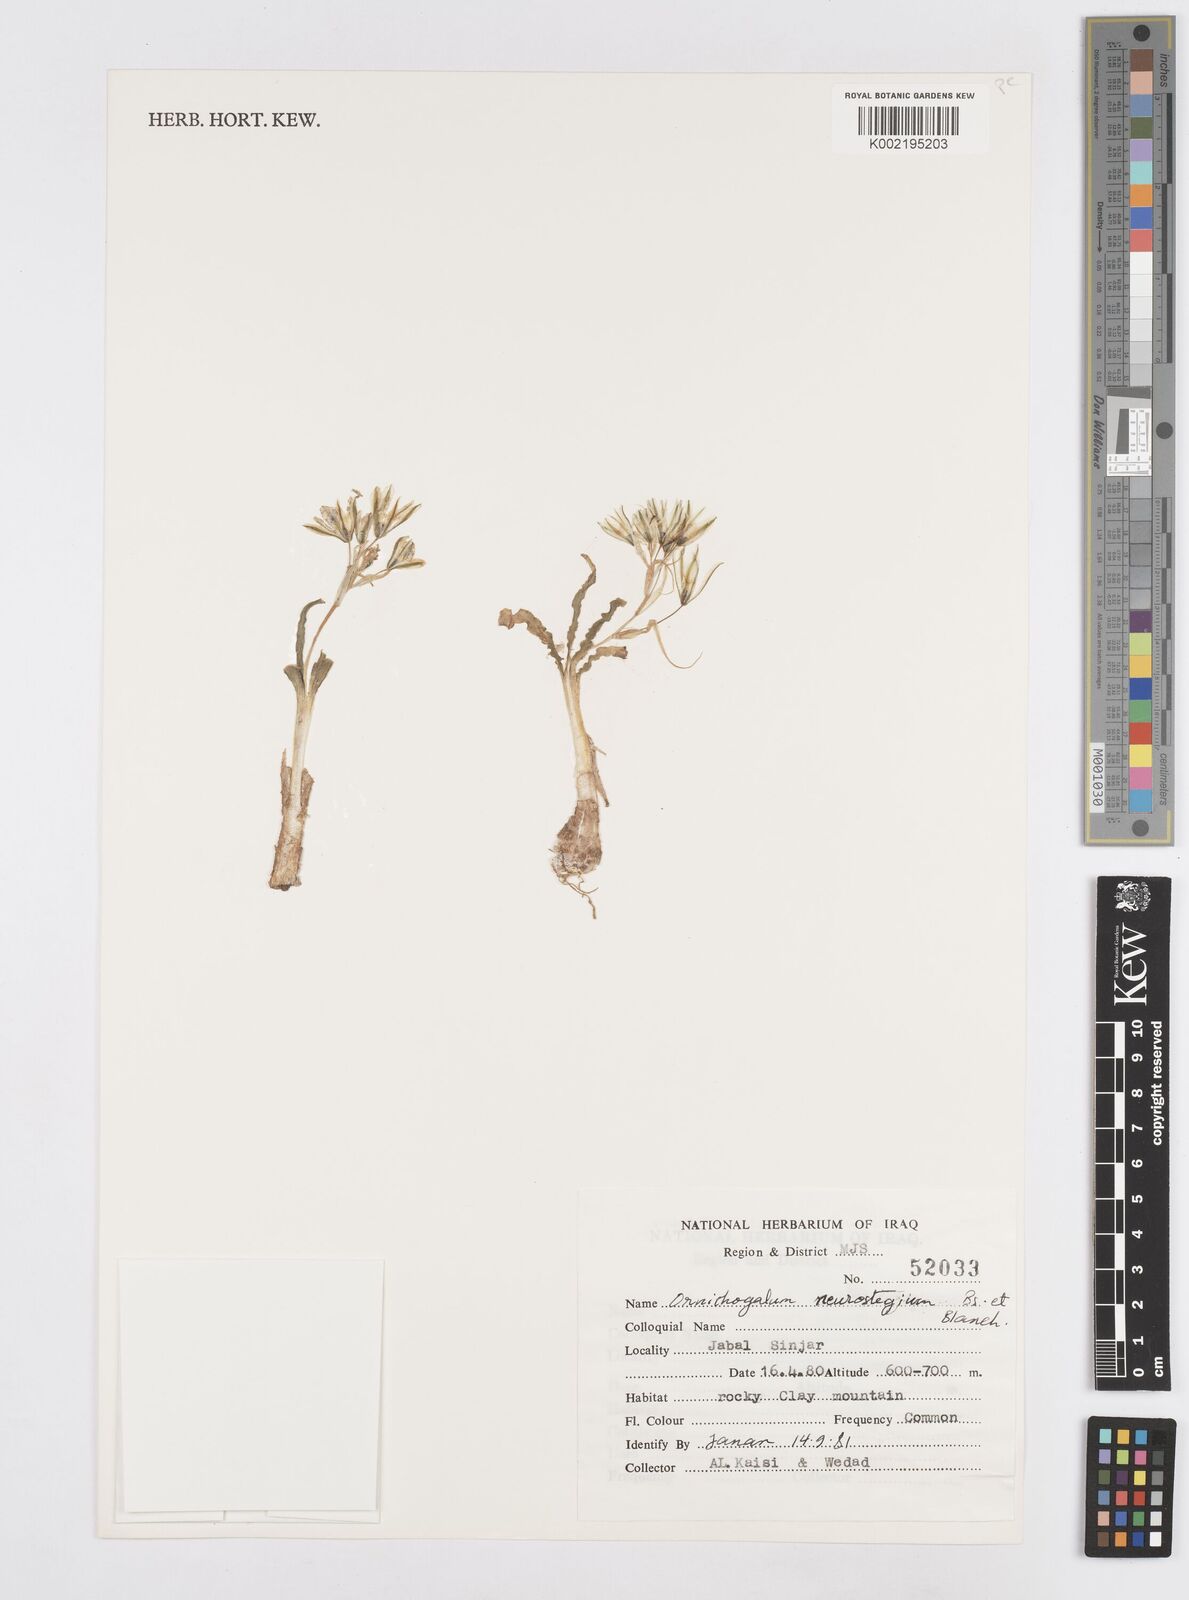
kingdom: Plantae
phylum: Tracheophyta
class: Liliopsida
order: Asparagales
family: Asparagaceae
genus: Ornithogalum
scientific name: Ornithogalum neurostegium
